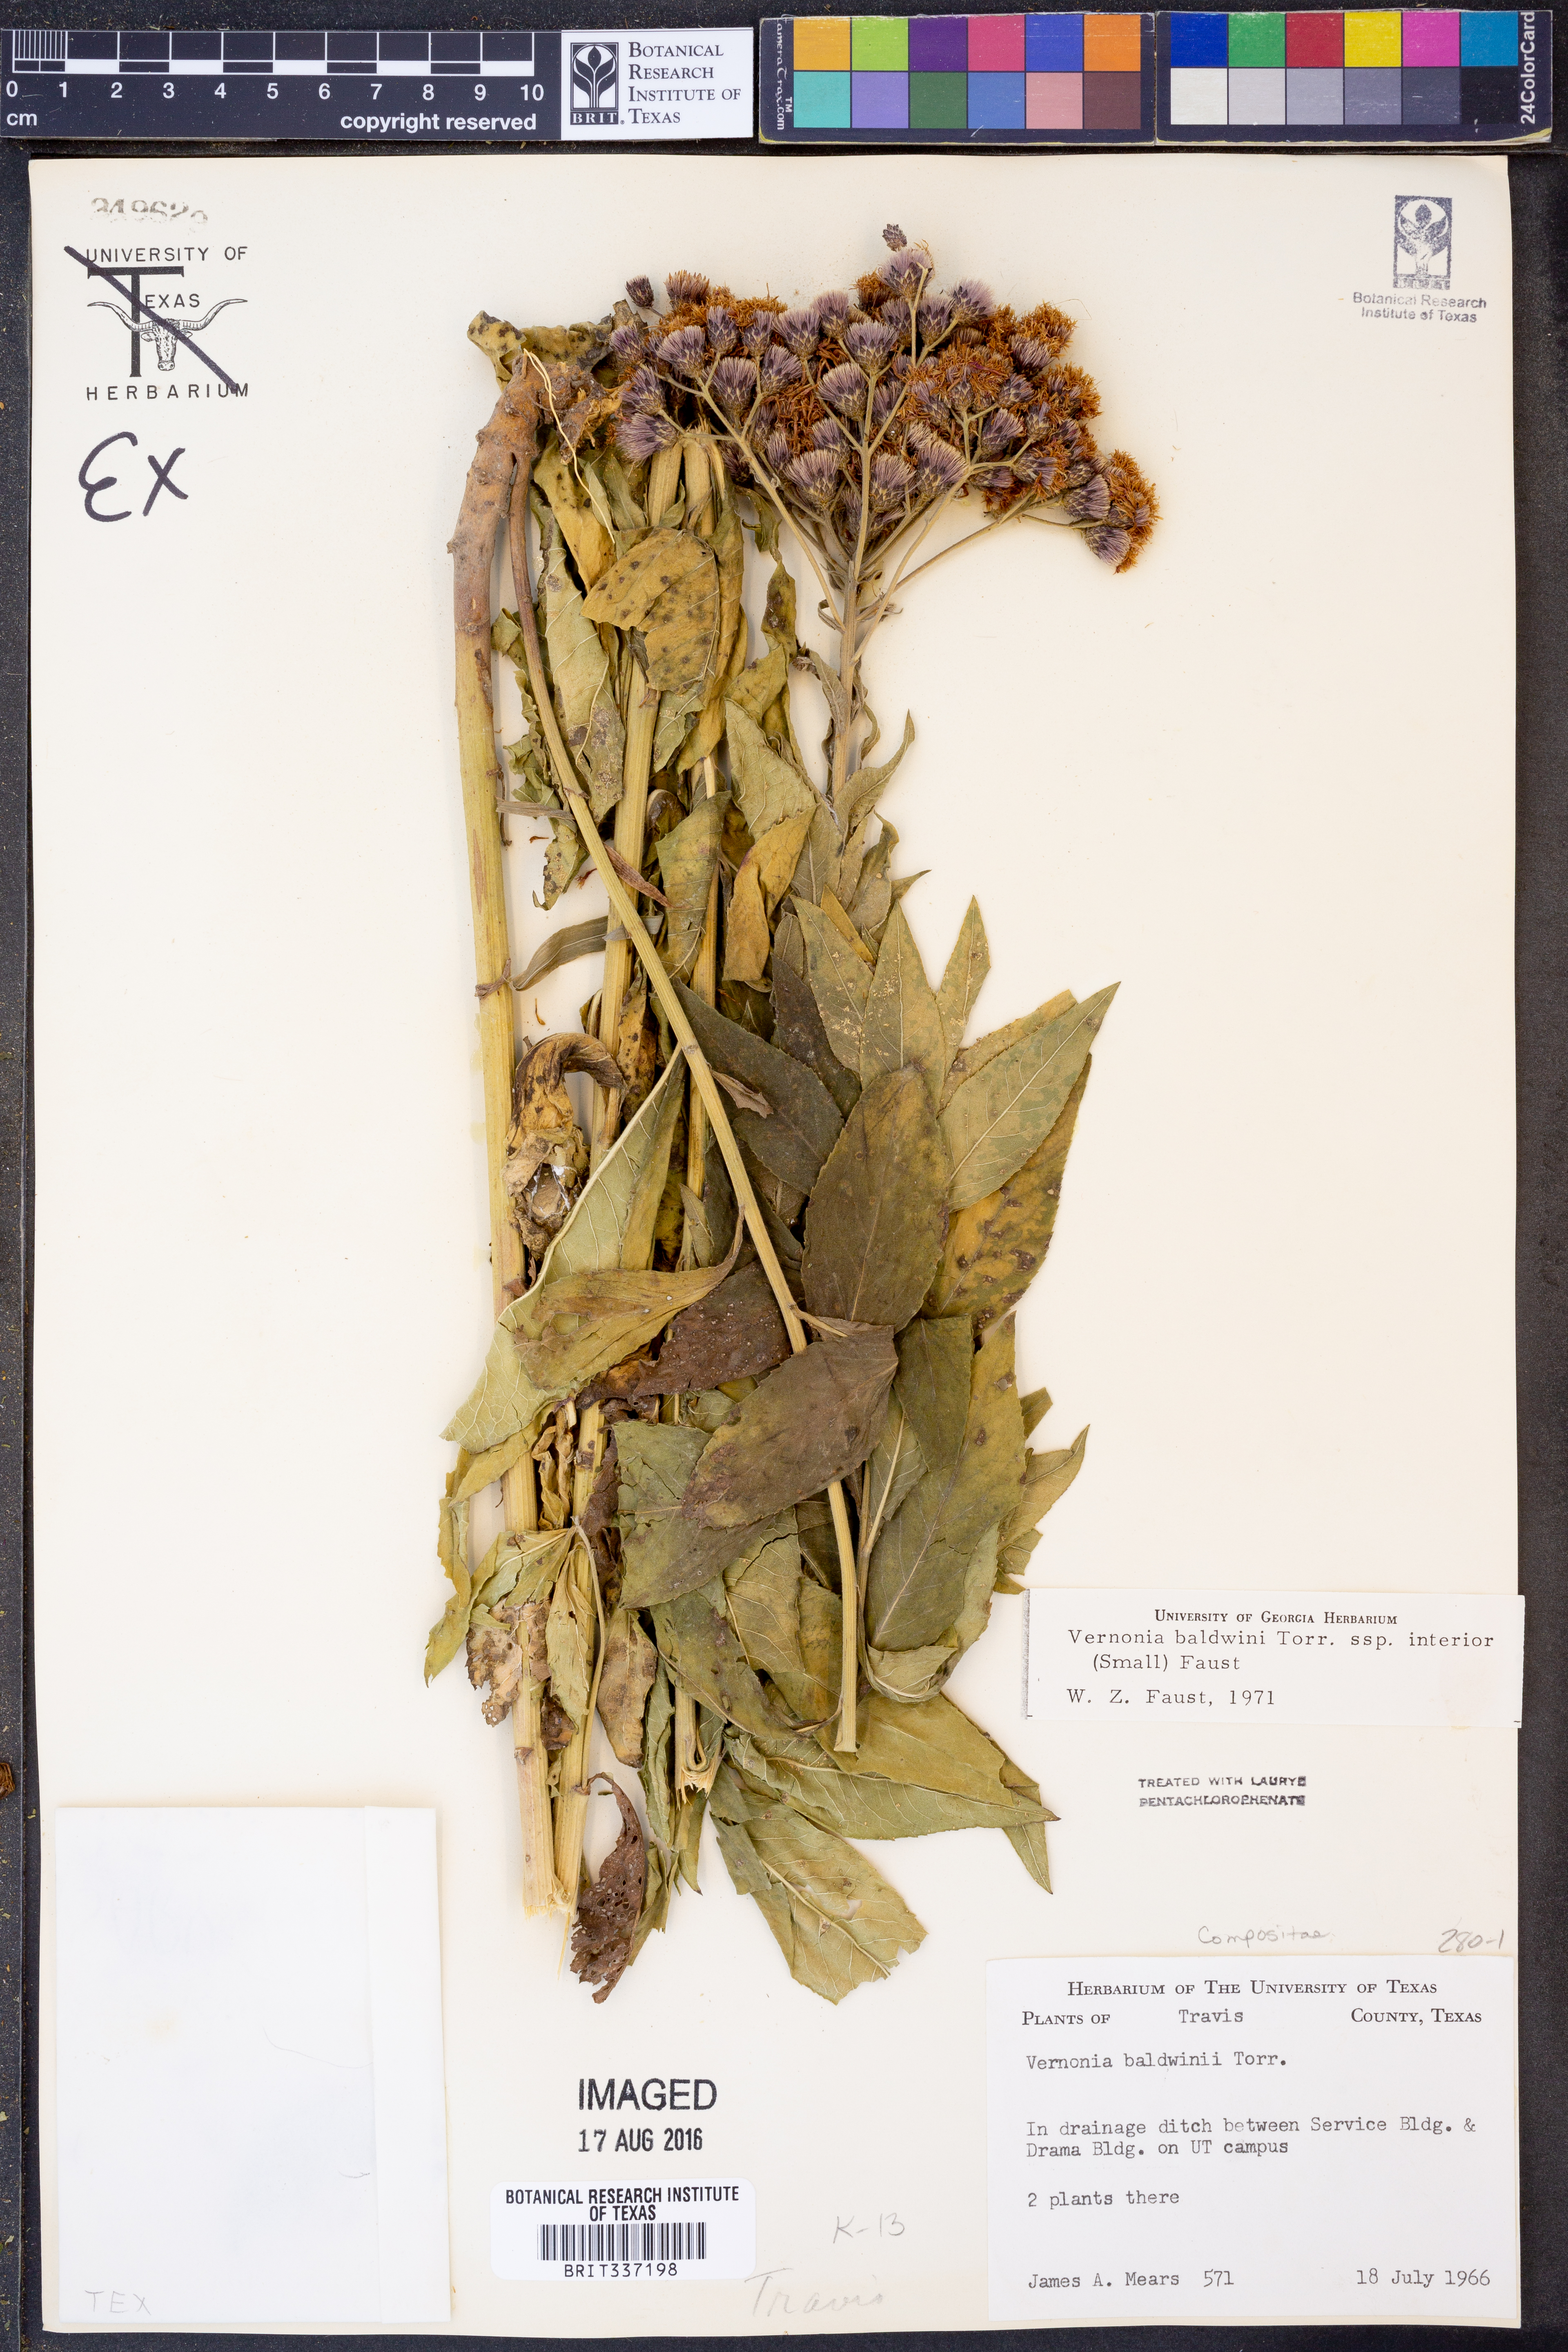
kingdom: Plantae
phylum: Tracheophyta
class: Magnoliopsida
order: Asterales
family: Asteraceae
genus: Vernonia
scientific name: Vernonia baldwinii
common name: Western ironweed
